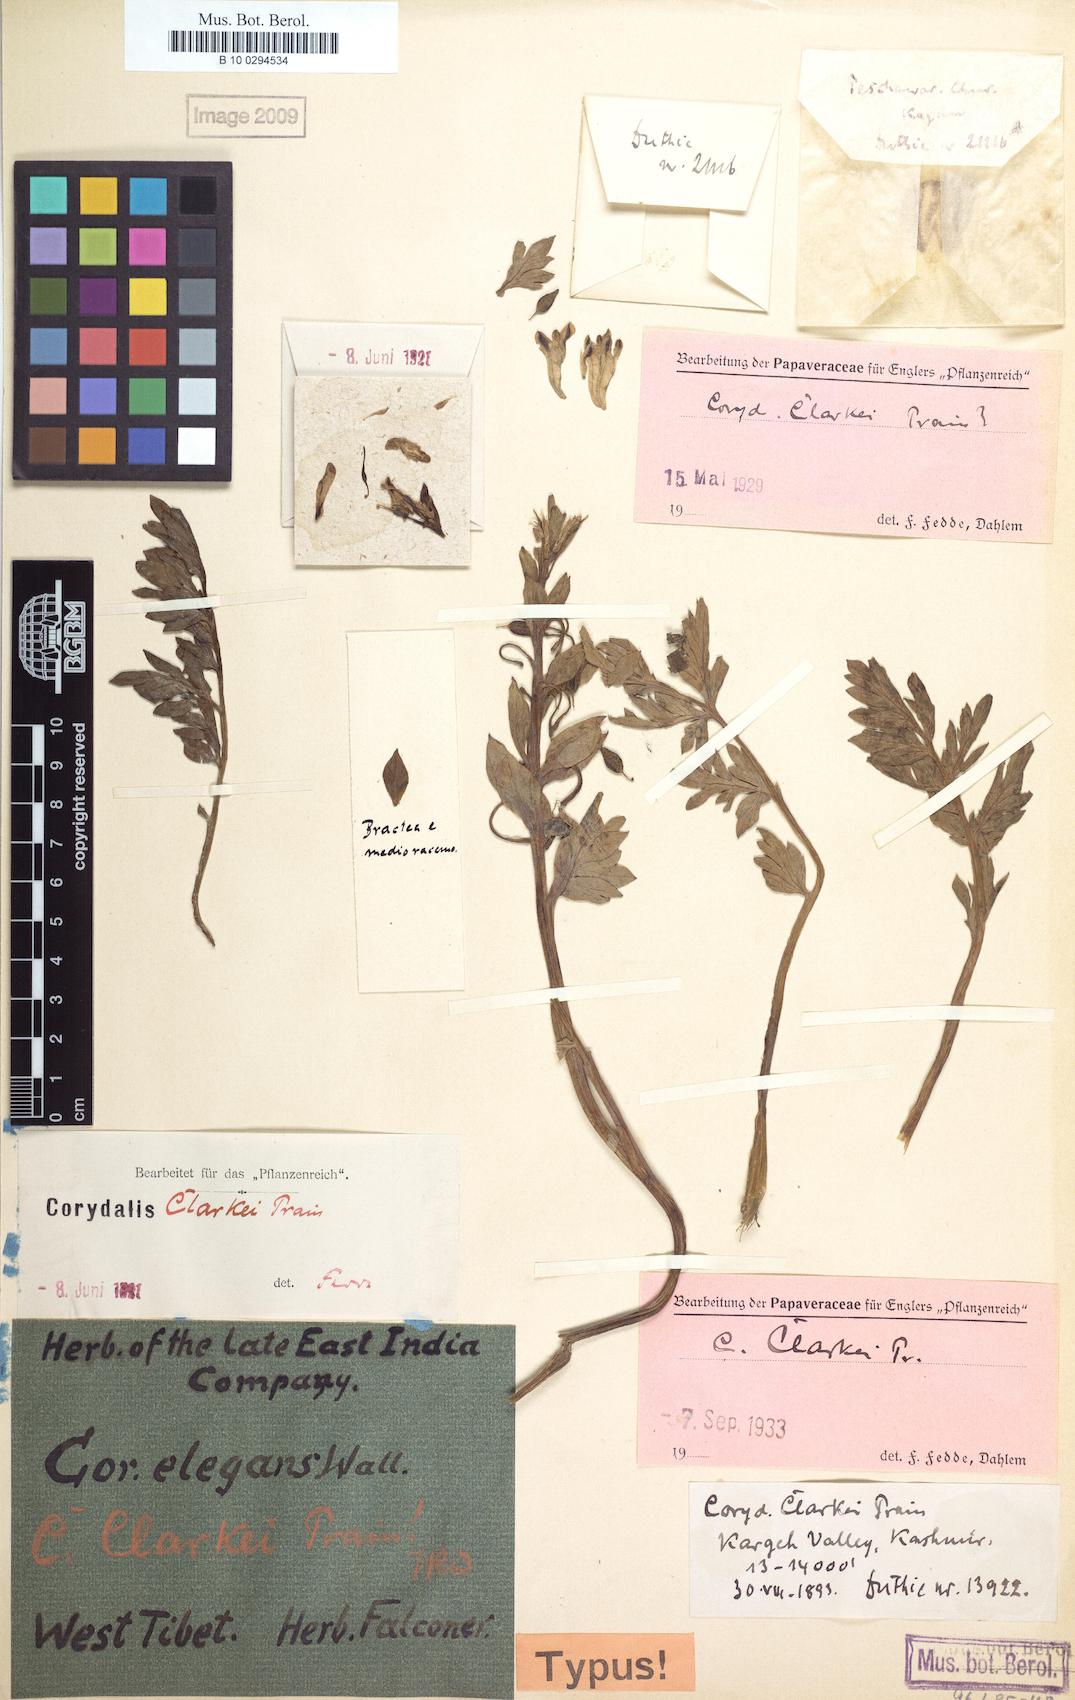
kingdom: Plantae
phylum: Tracheophyta
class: Magnoliopsida
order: Ranunculales
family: Papaveraceae
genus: Corydalis
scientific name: Corydalis clarkei
